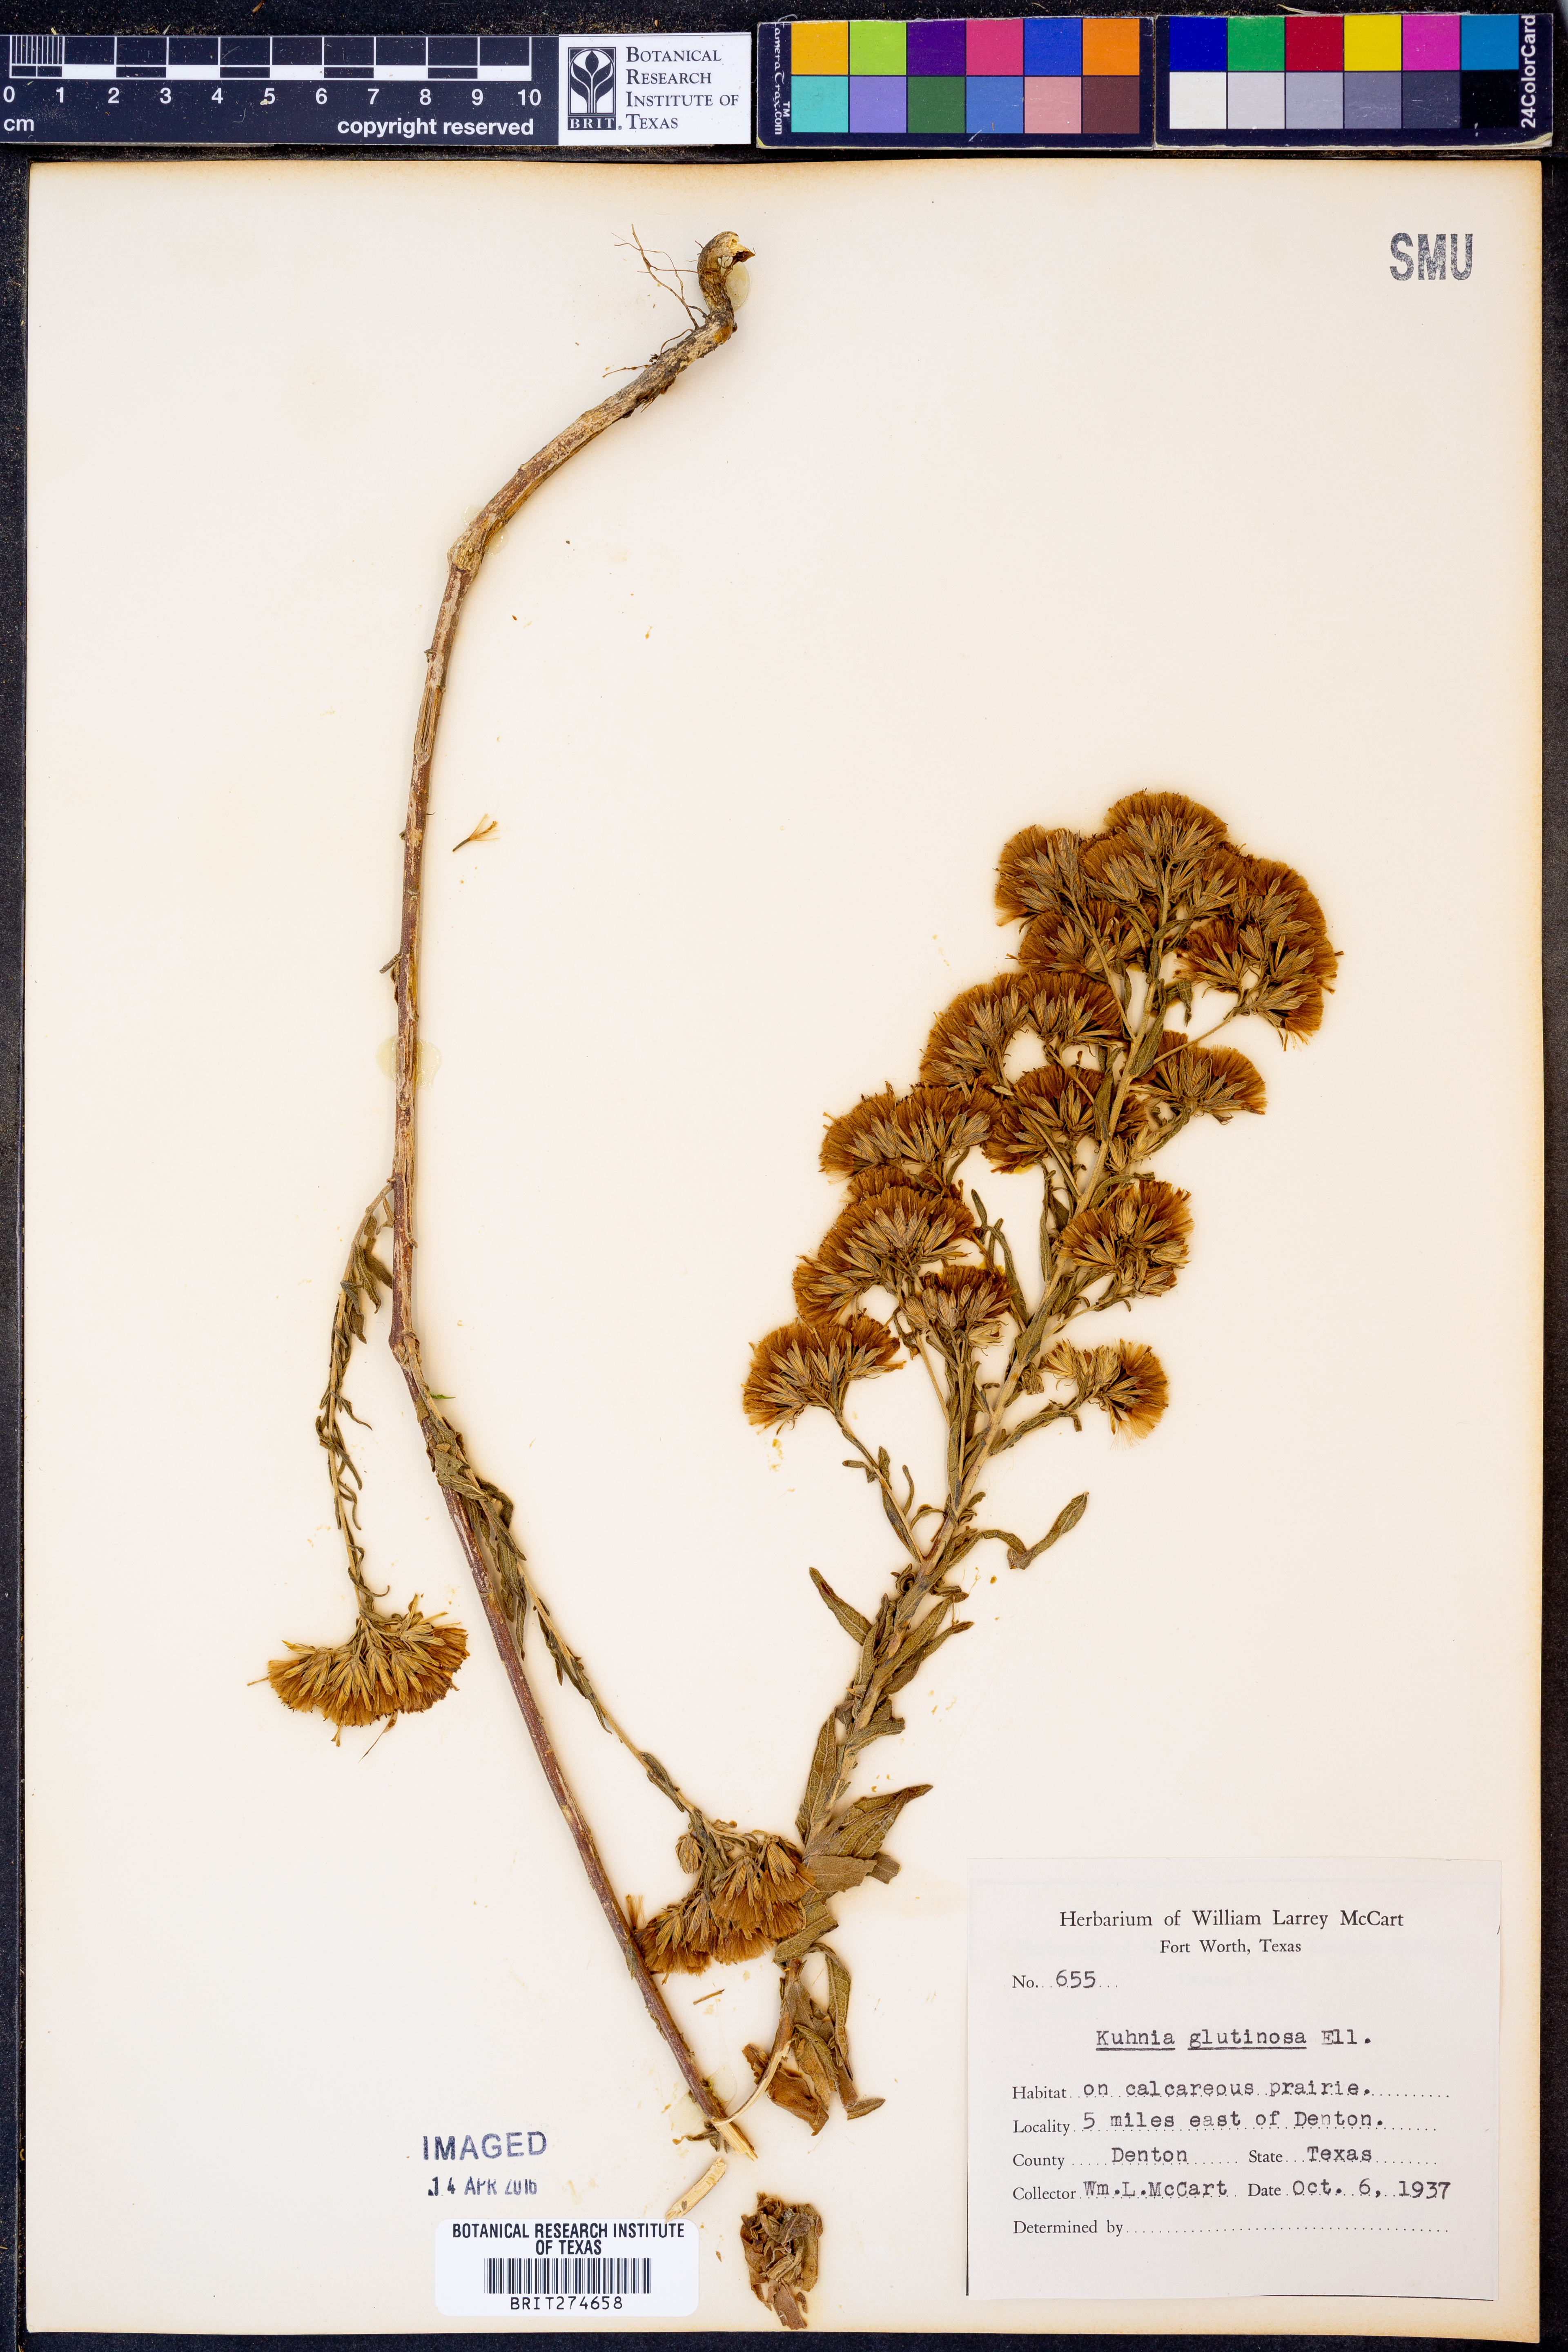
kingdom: Plantae
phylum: Tracheophyta
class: Magnoliopsida
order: Asterales
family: Asteraceae
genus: Brickellia
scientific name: Brickellia eupatorioides
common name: False boneset
